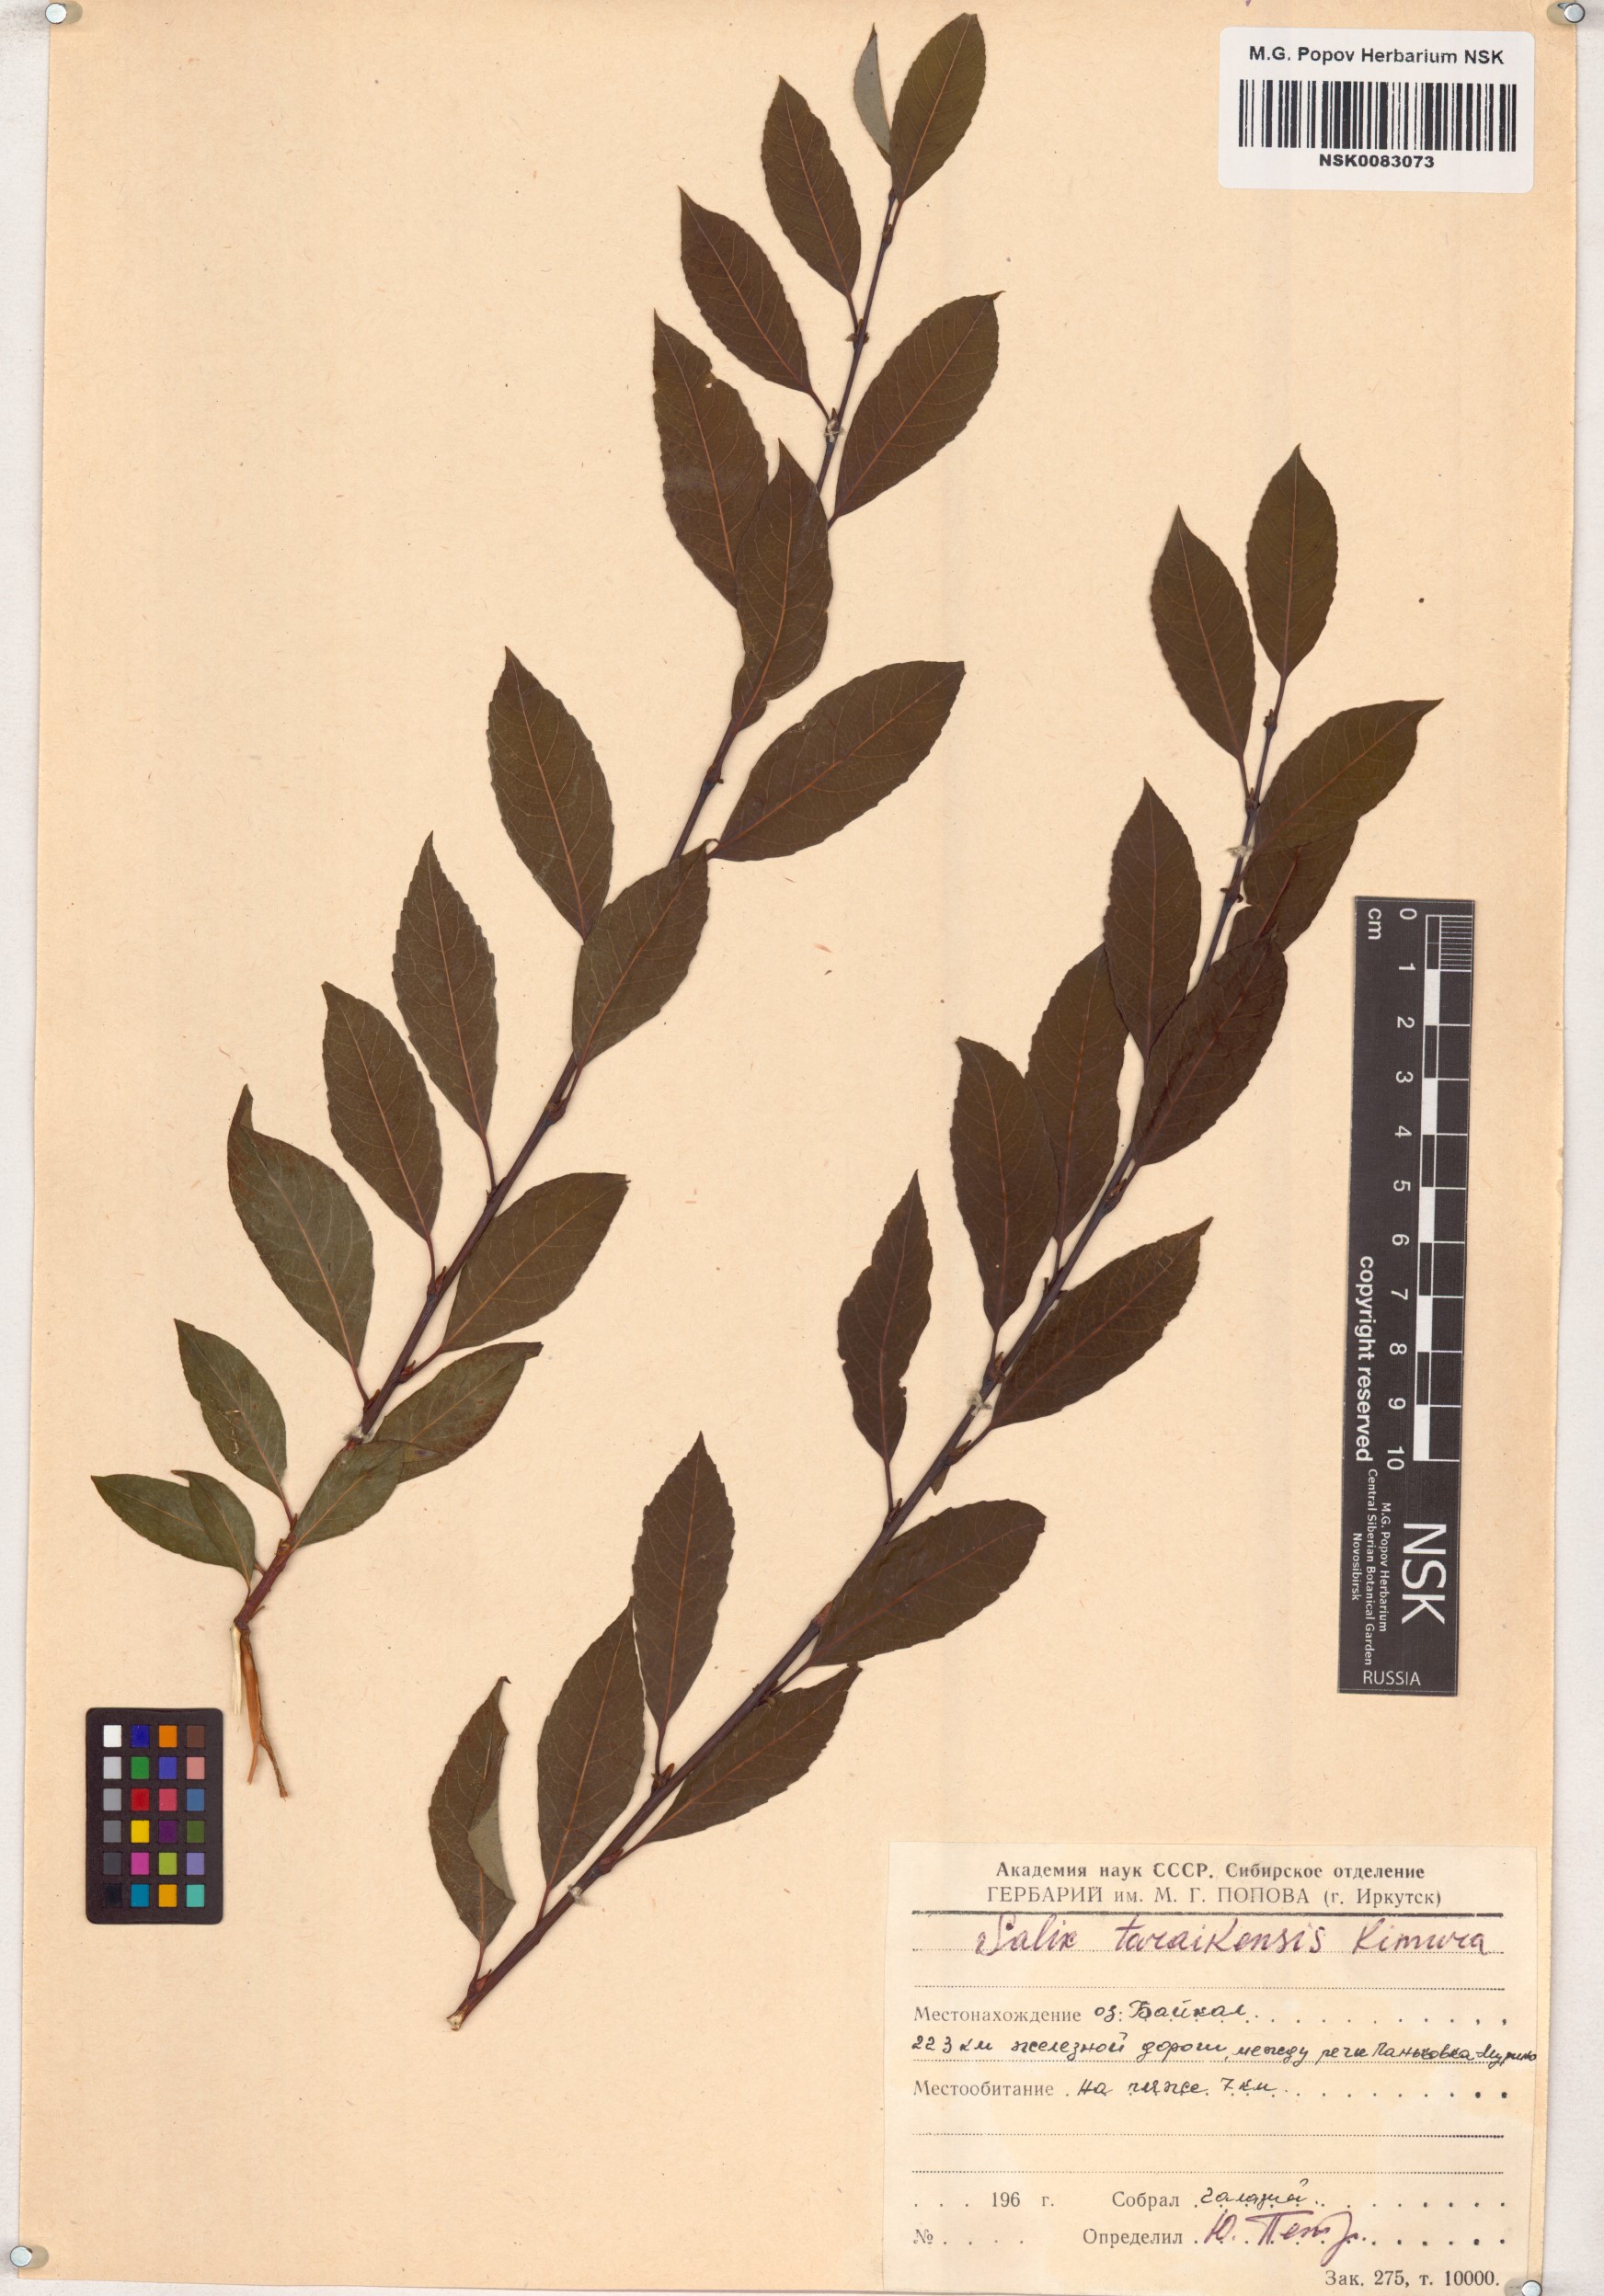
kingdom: Plantae
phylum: Tracheophyta
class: Magnoliopsida
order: Malpighiales
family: Salicaceae
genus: Salix
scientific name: Salix taraikensis
